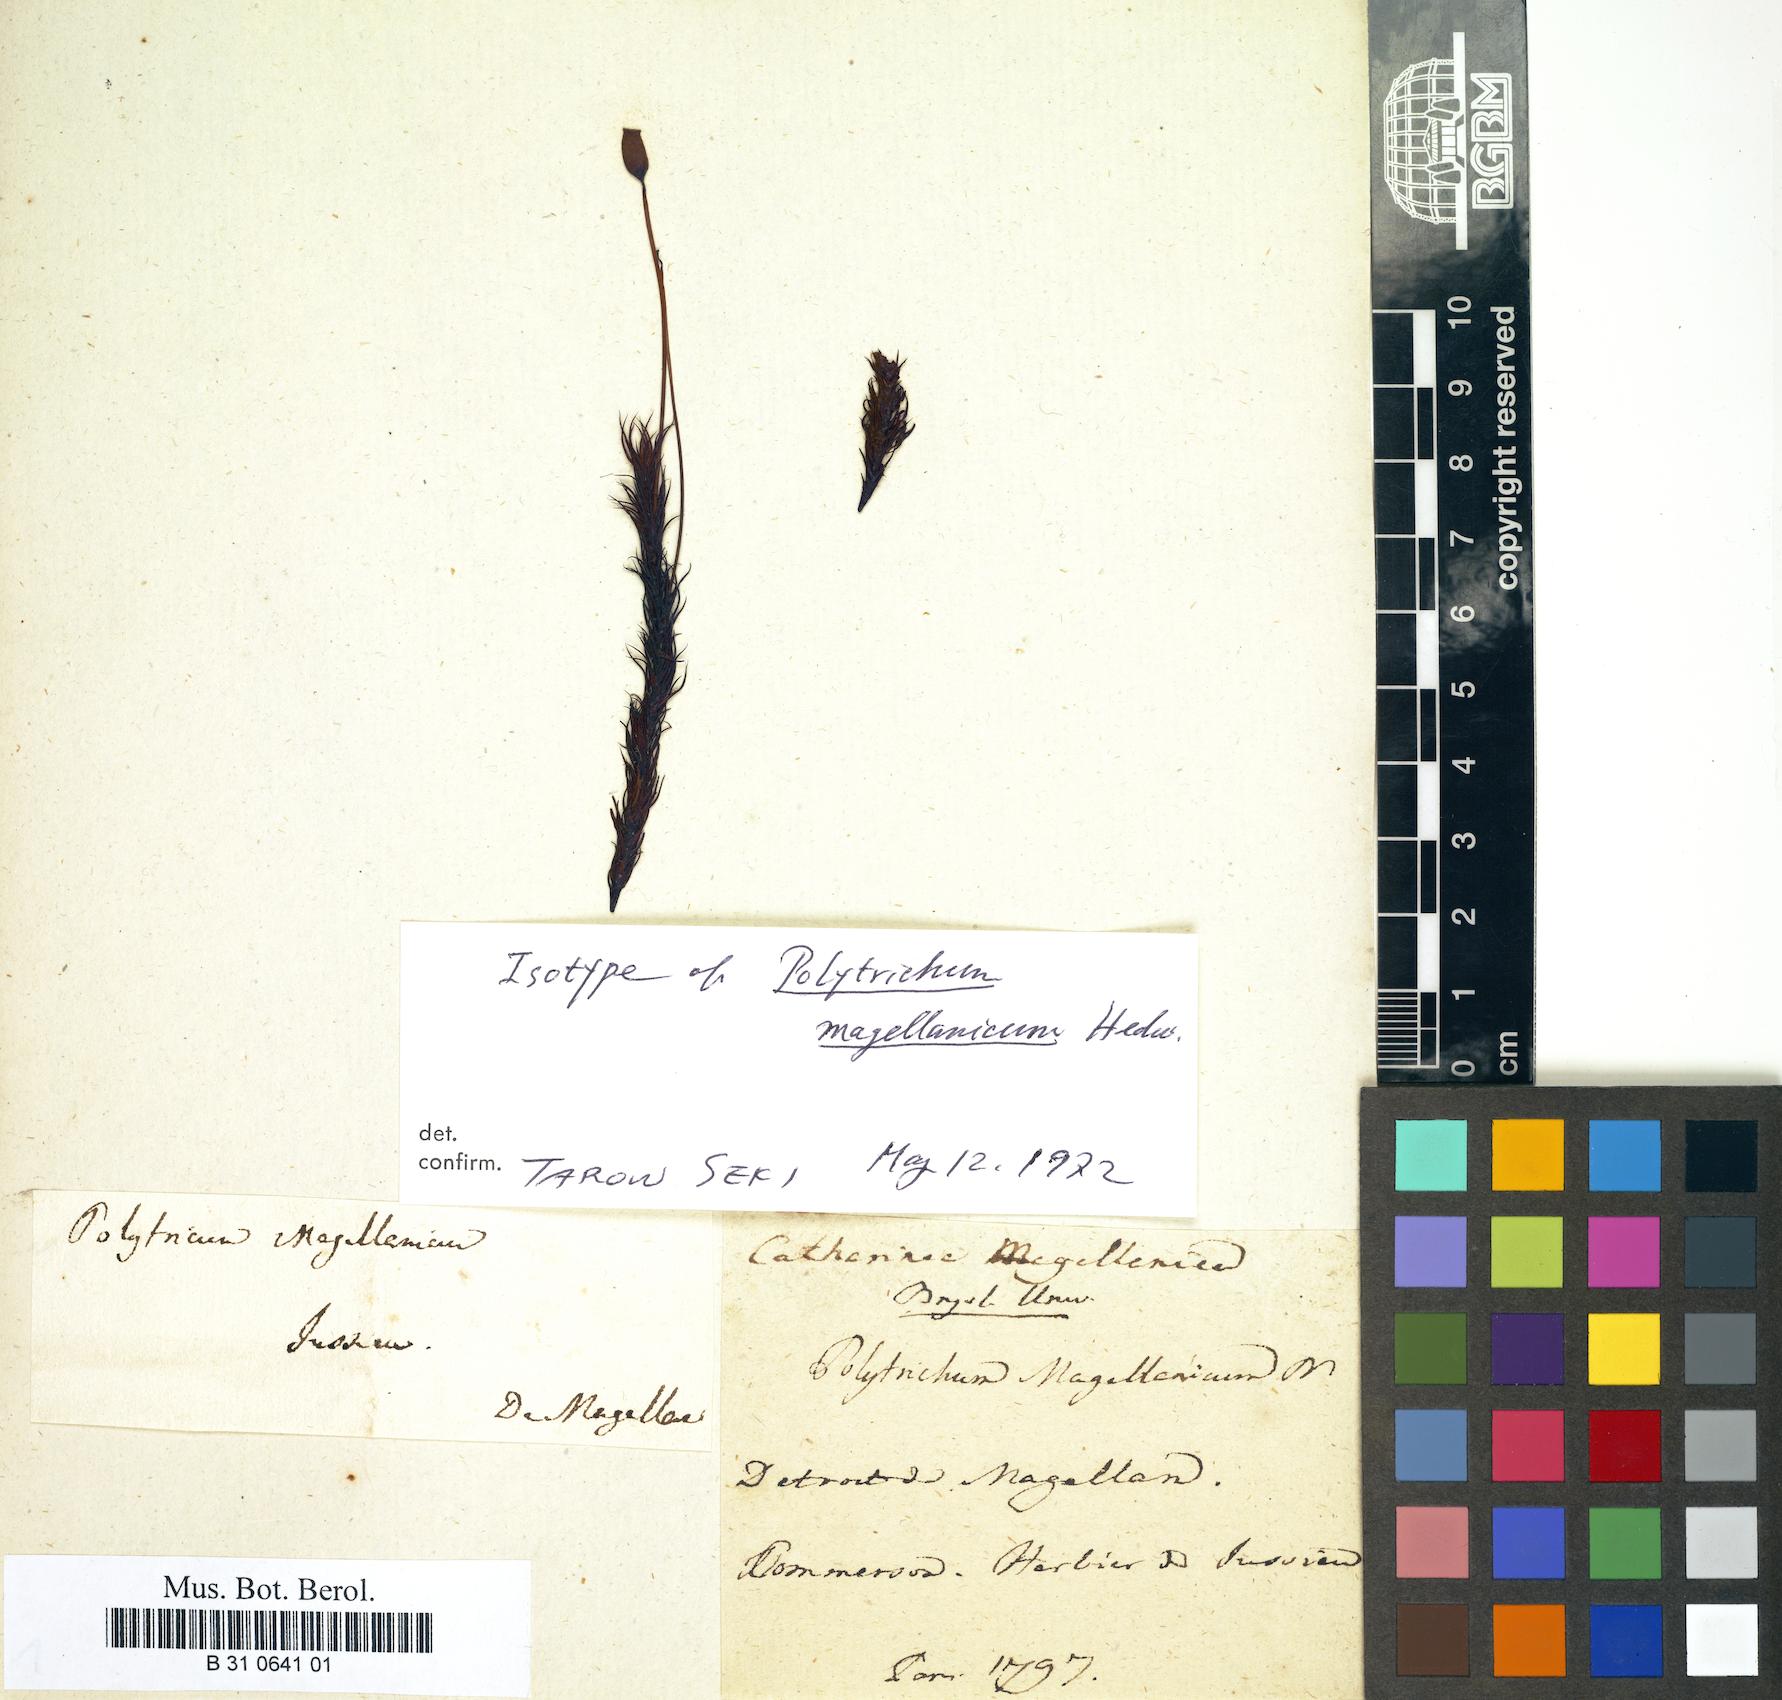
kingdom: Plantae
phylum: Bryophyta
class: Polytrichopsida
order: Polytrichales
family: Polytrichaceae
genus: Polytrichadelphus
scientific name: Polytrichadelphus magellanicus
